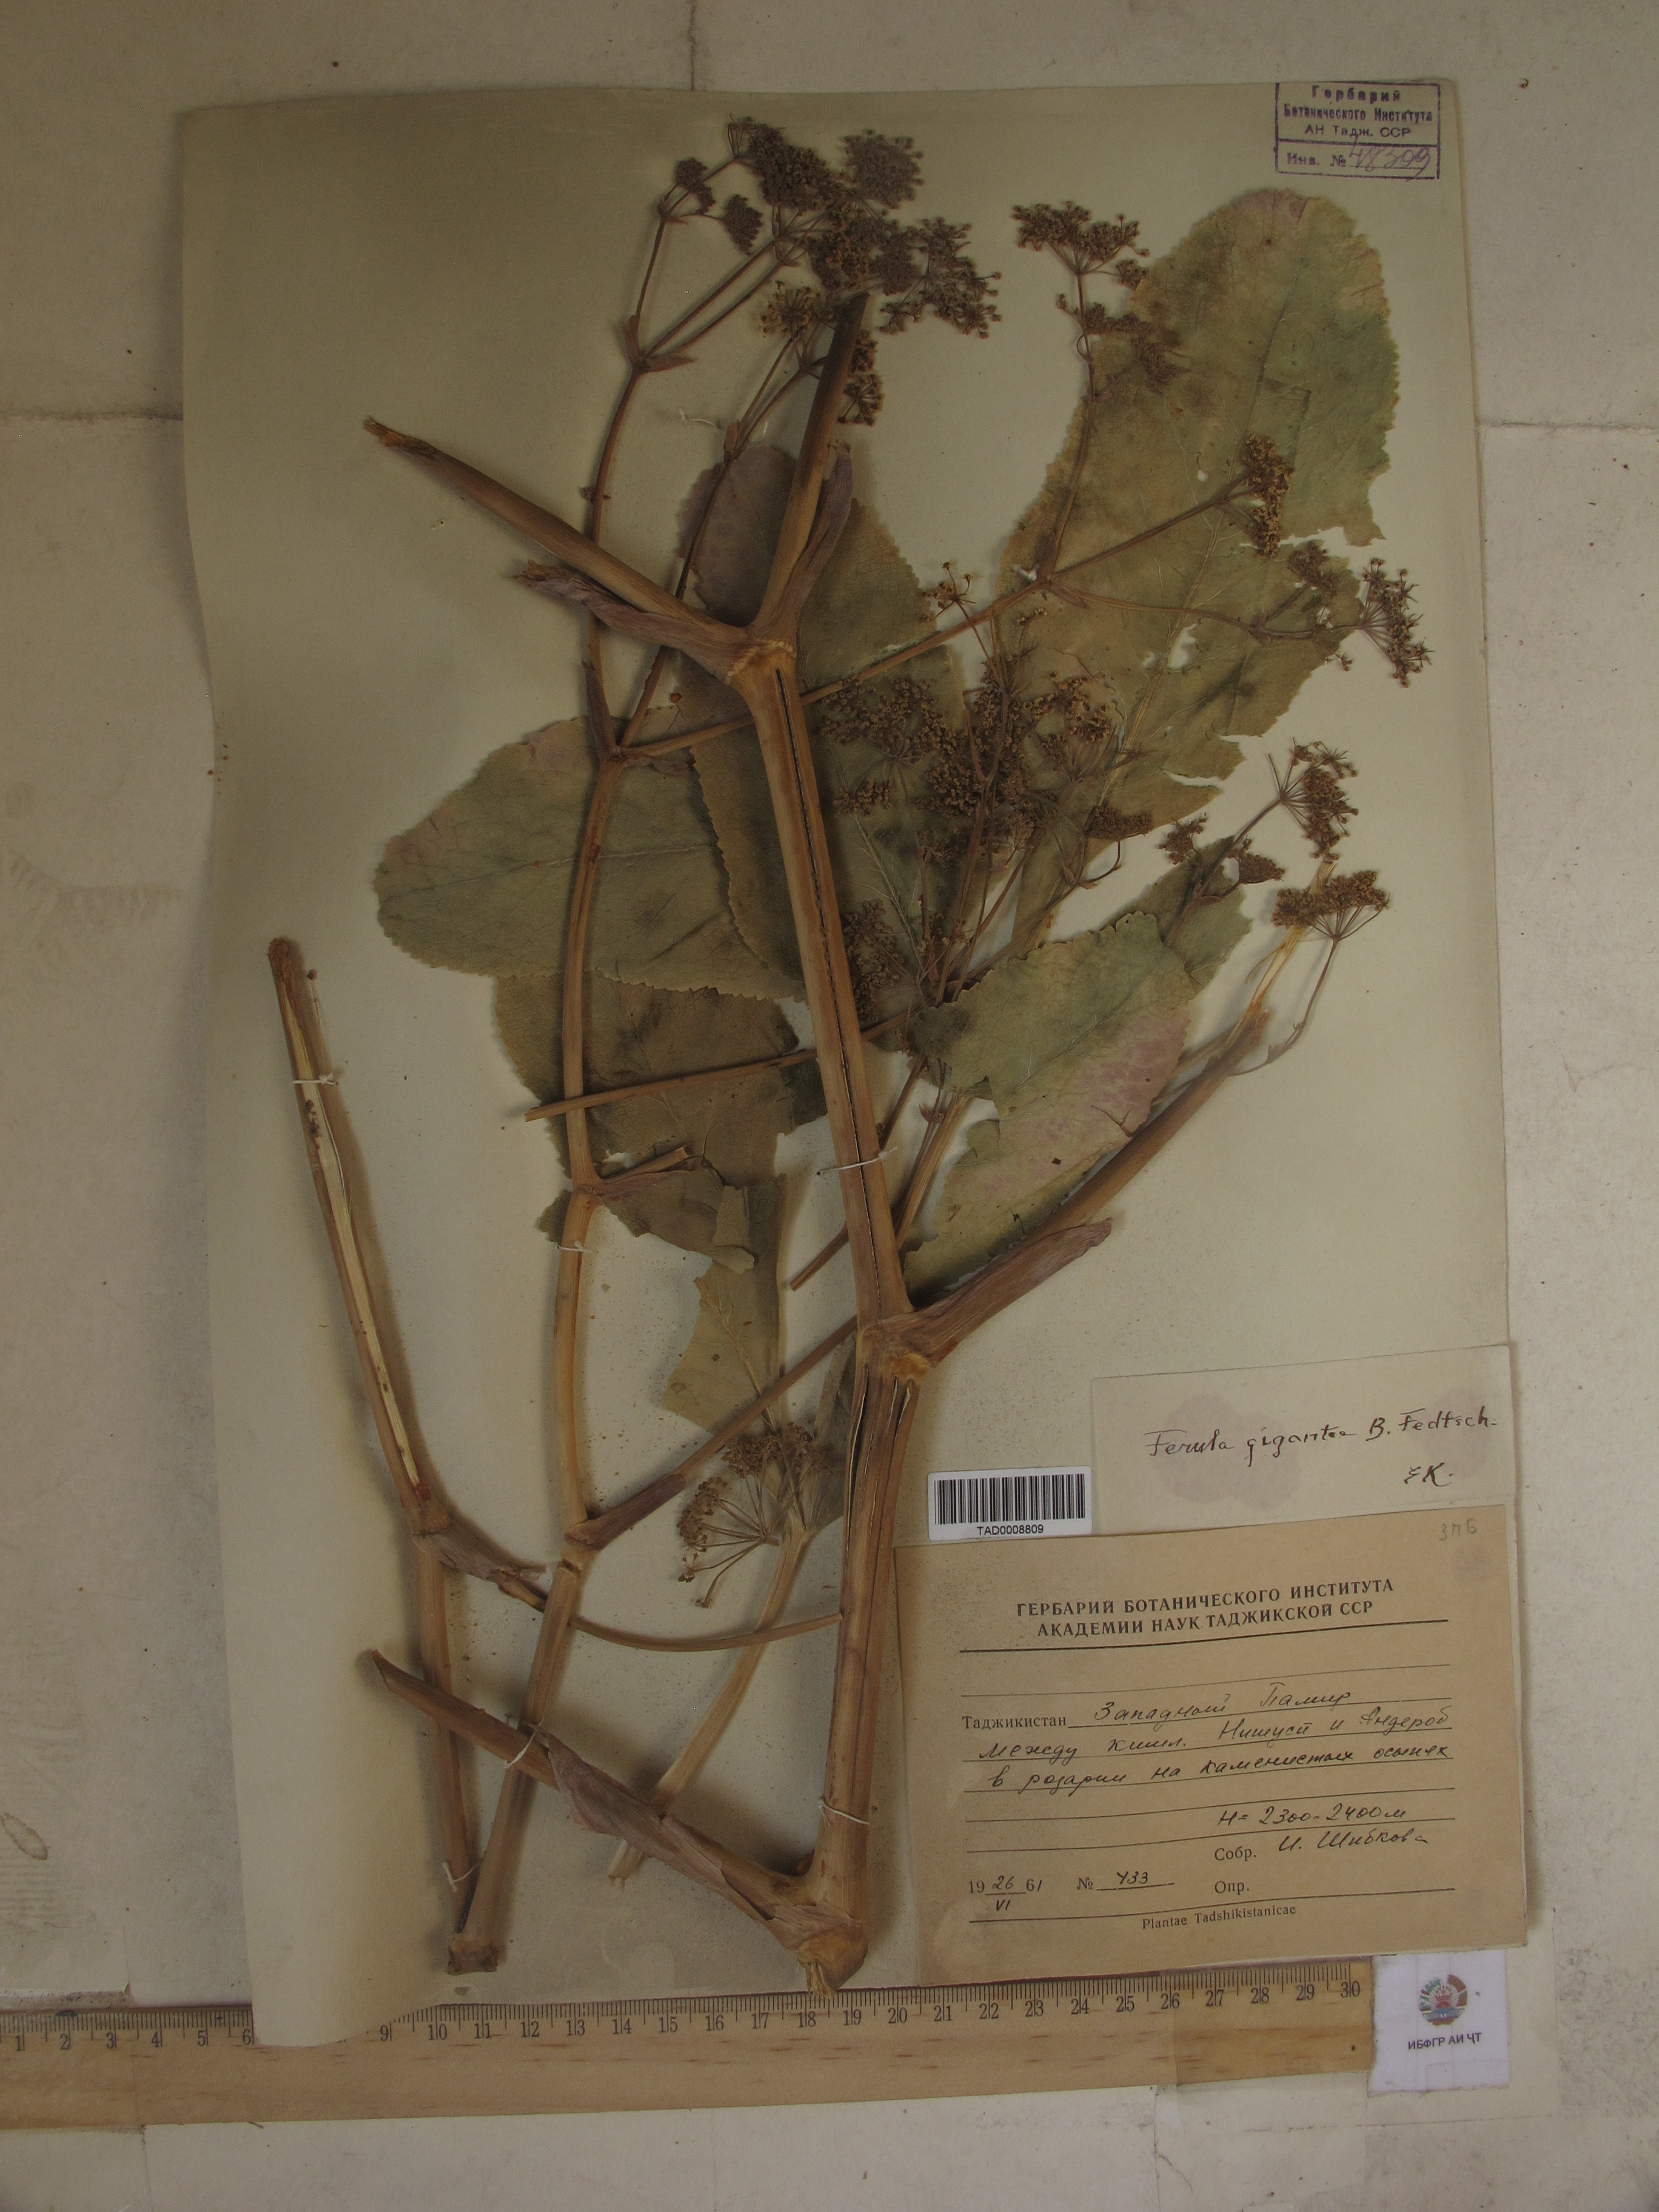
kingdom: Plantae
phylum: Tracheophyta
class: Magnoliopsida
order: Apiales
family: Apiaceae
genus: Ferula
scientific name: Ferula gigantea
